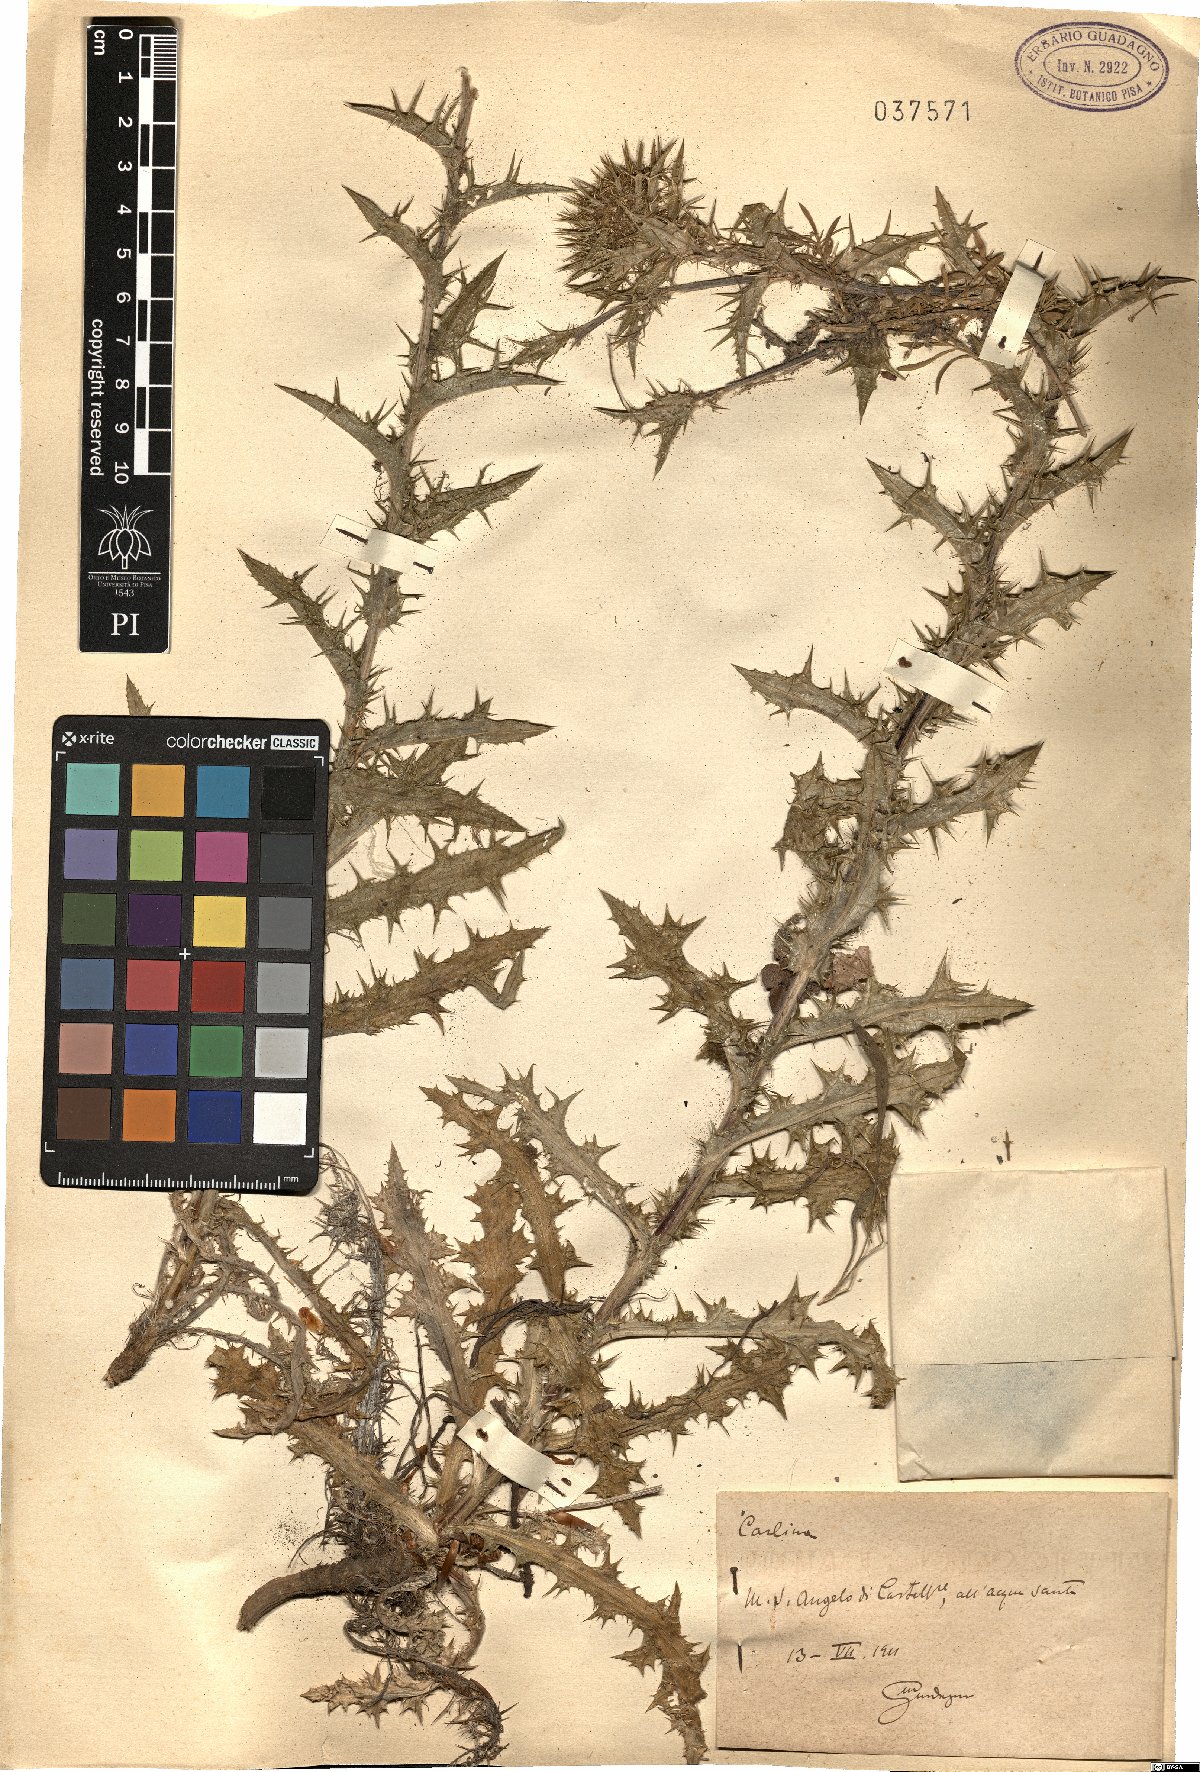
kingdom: Plantae
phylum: Tracheophyta
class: Magnoliopsida
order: Asterales
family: Asteraceae
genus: Carlina
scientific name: Carlina
